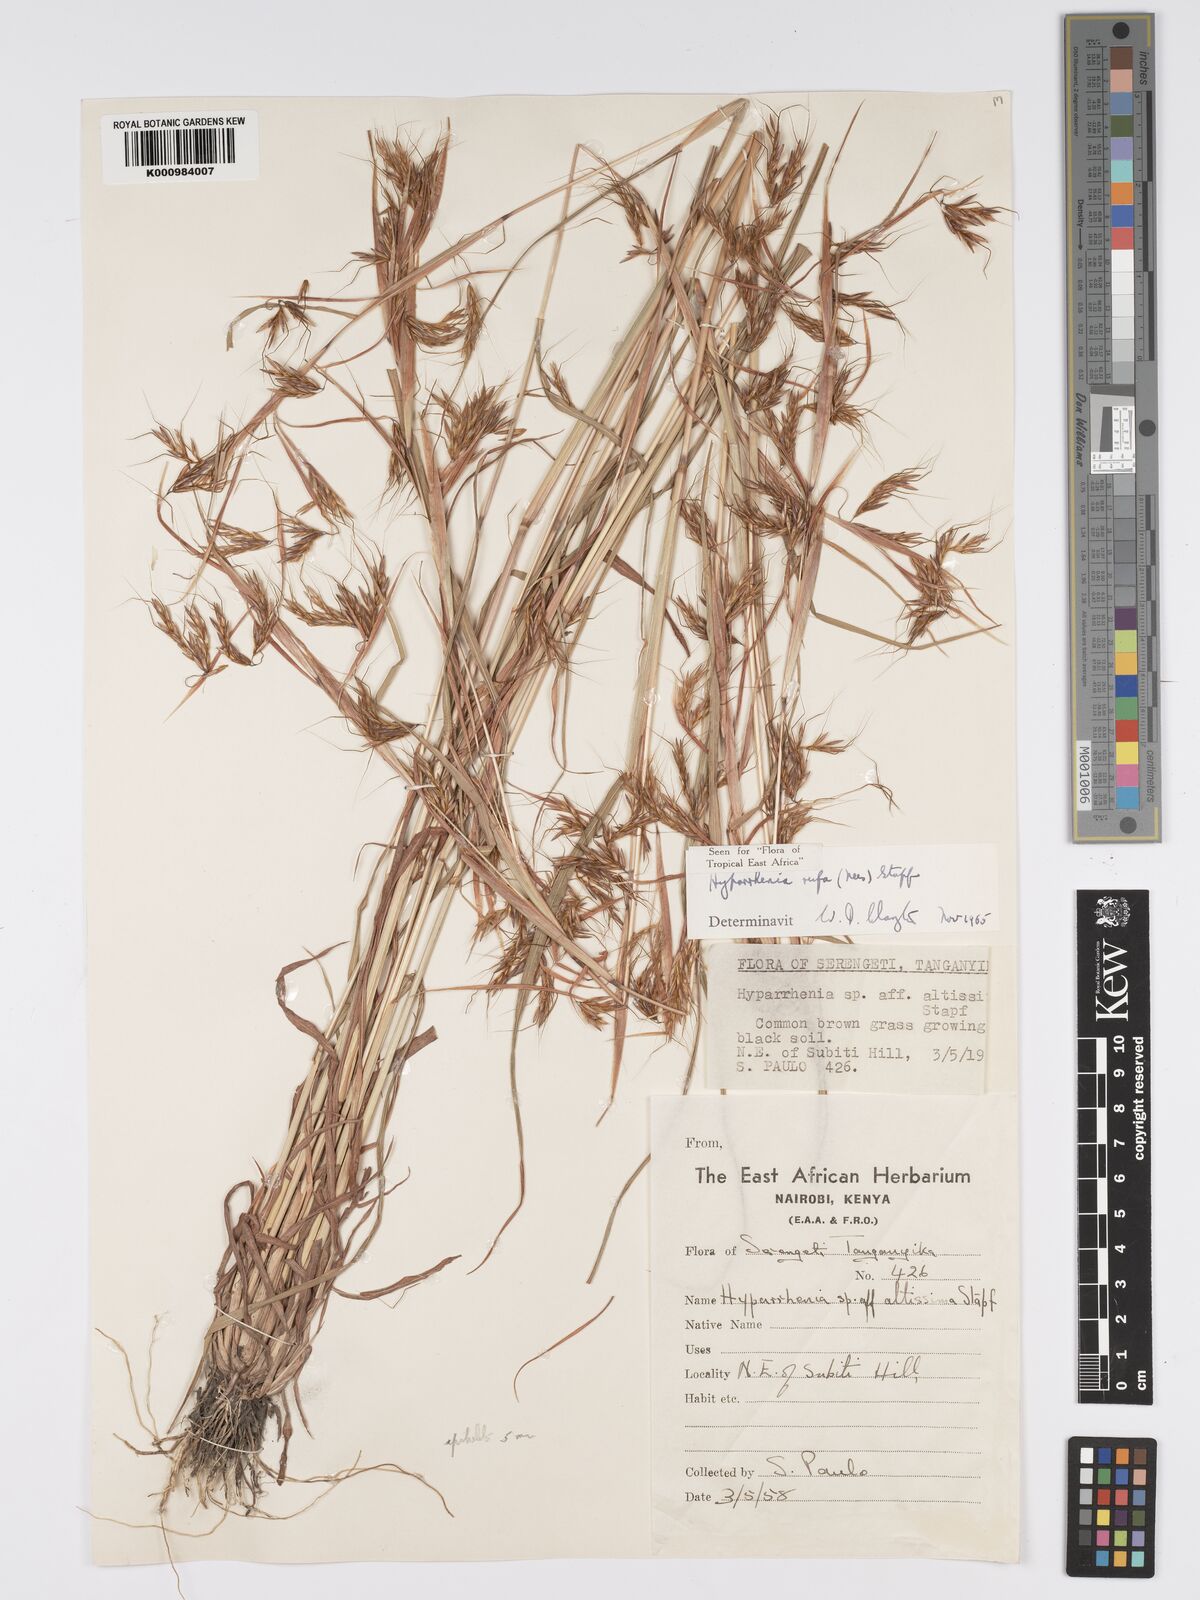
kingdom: Plantae
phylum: Tracheophyta
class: Liliopsida
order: Poales
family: Poaceae
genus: Hyparrhenia
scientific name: Hyparrhenia rufa
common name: Jaraguagrass
